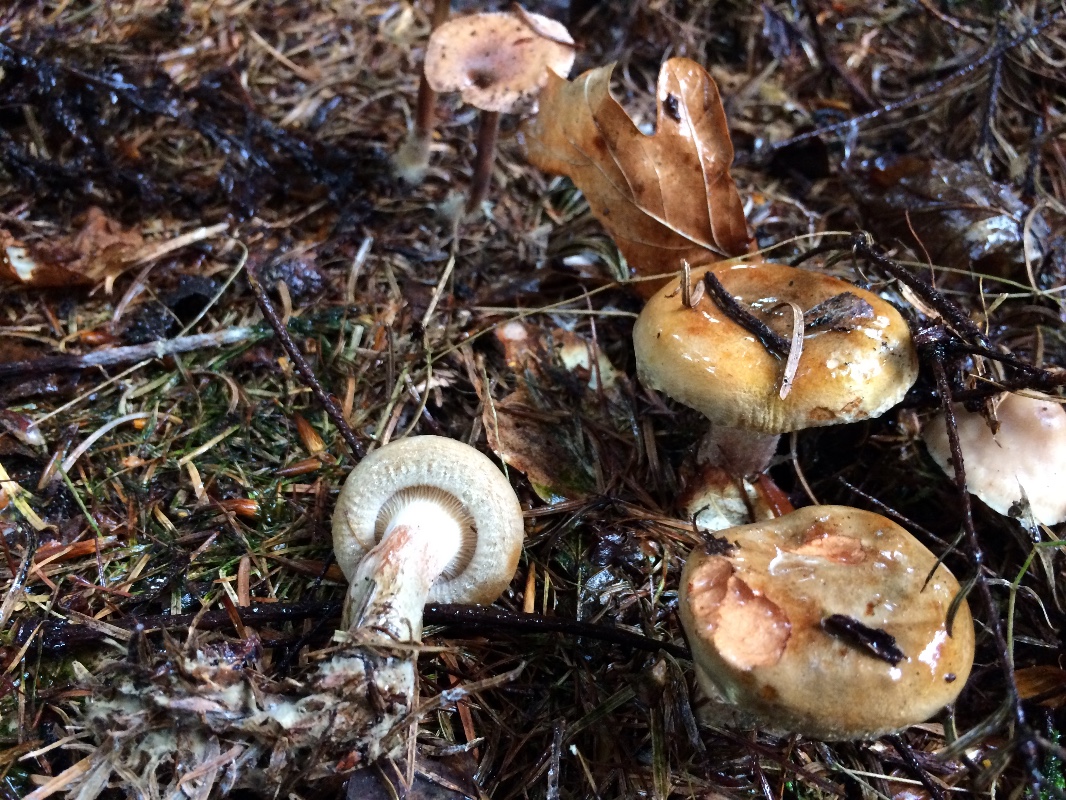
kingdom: Fungi
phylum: Basidiomycota
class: Agaricomycetes
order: Boletales
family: Paxillaceae
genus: Paxillus
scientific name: Paxillus involutus
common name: almindelig netbladhat
